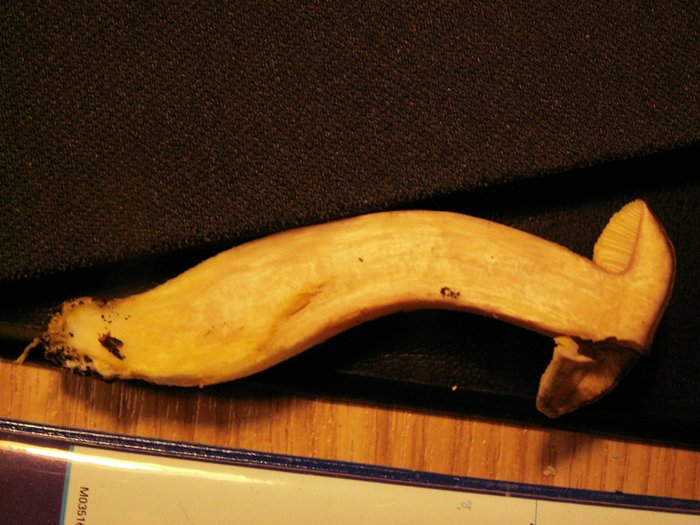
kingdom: Fungi
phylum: Basidiomycota
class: Agaricomycetes
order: Boletales
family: Boletaceae
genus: Xerocomus
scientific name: Xerocomus subtomentosus
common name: filtet rørhat
